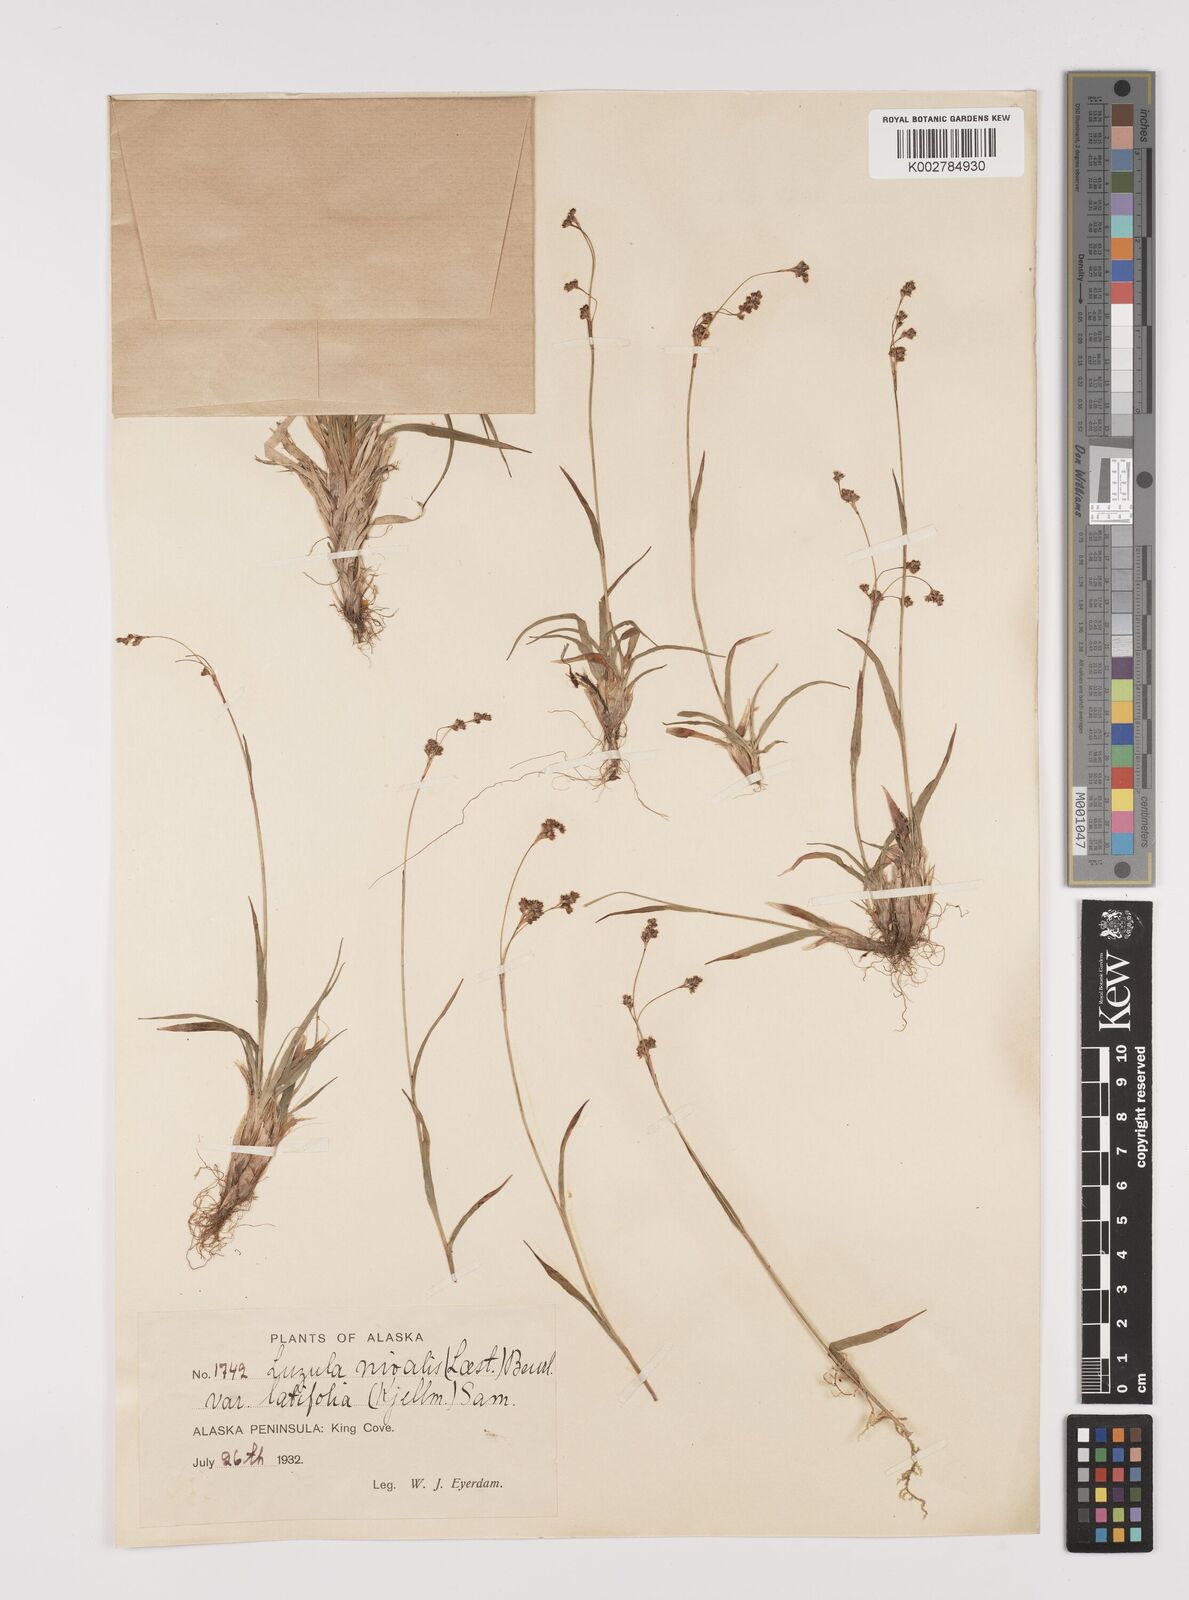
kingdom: Plantae
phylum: Tracheophyta
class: Liliopsida
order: Poales
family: Juncaceae
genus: Luzula
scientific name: Luzula nivalis
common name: Arctic woodrush
